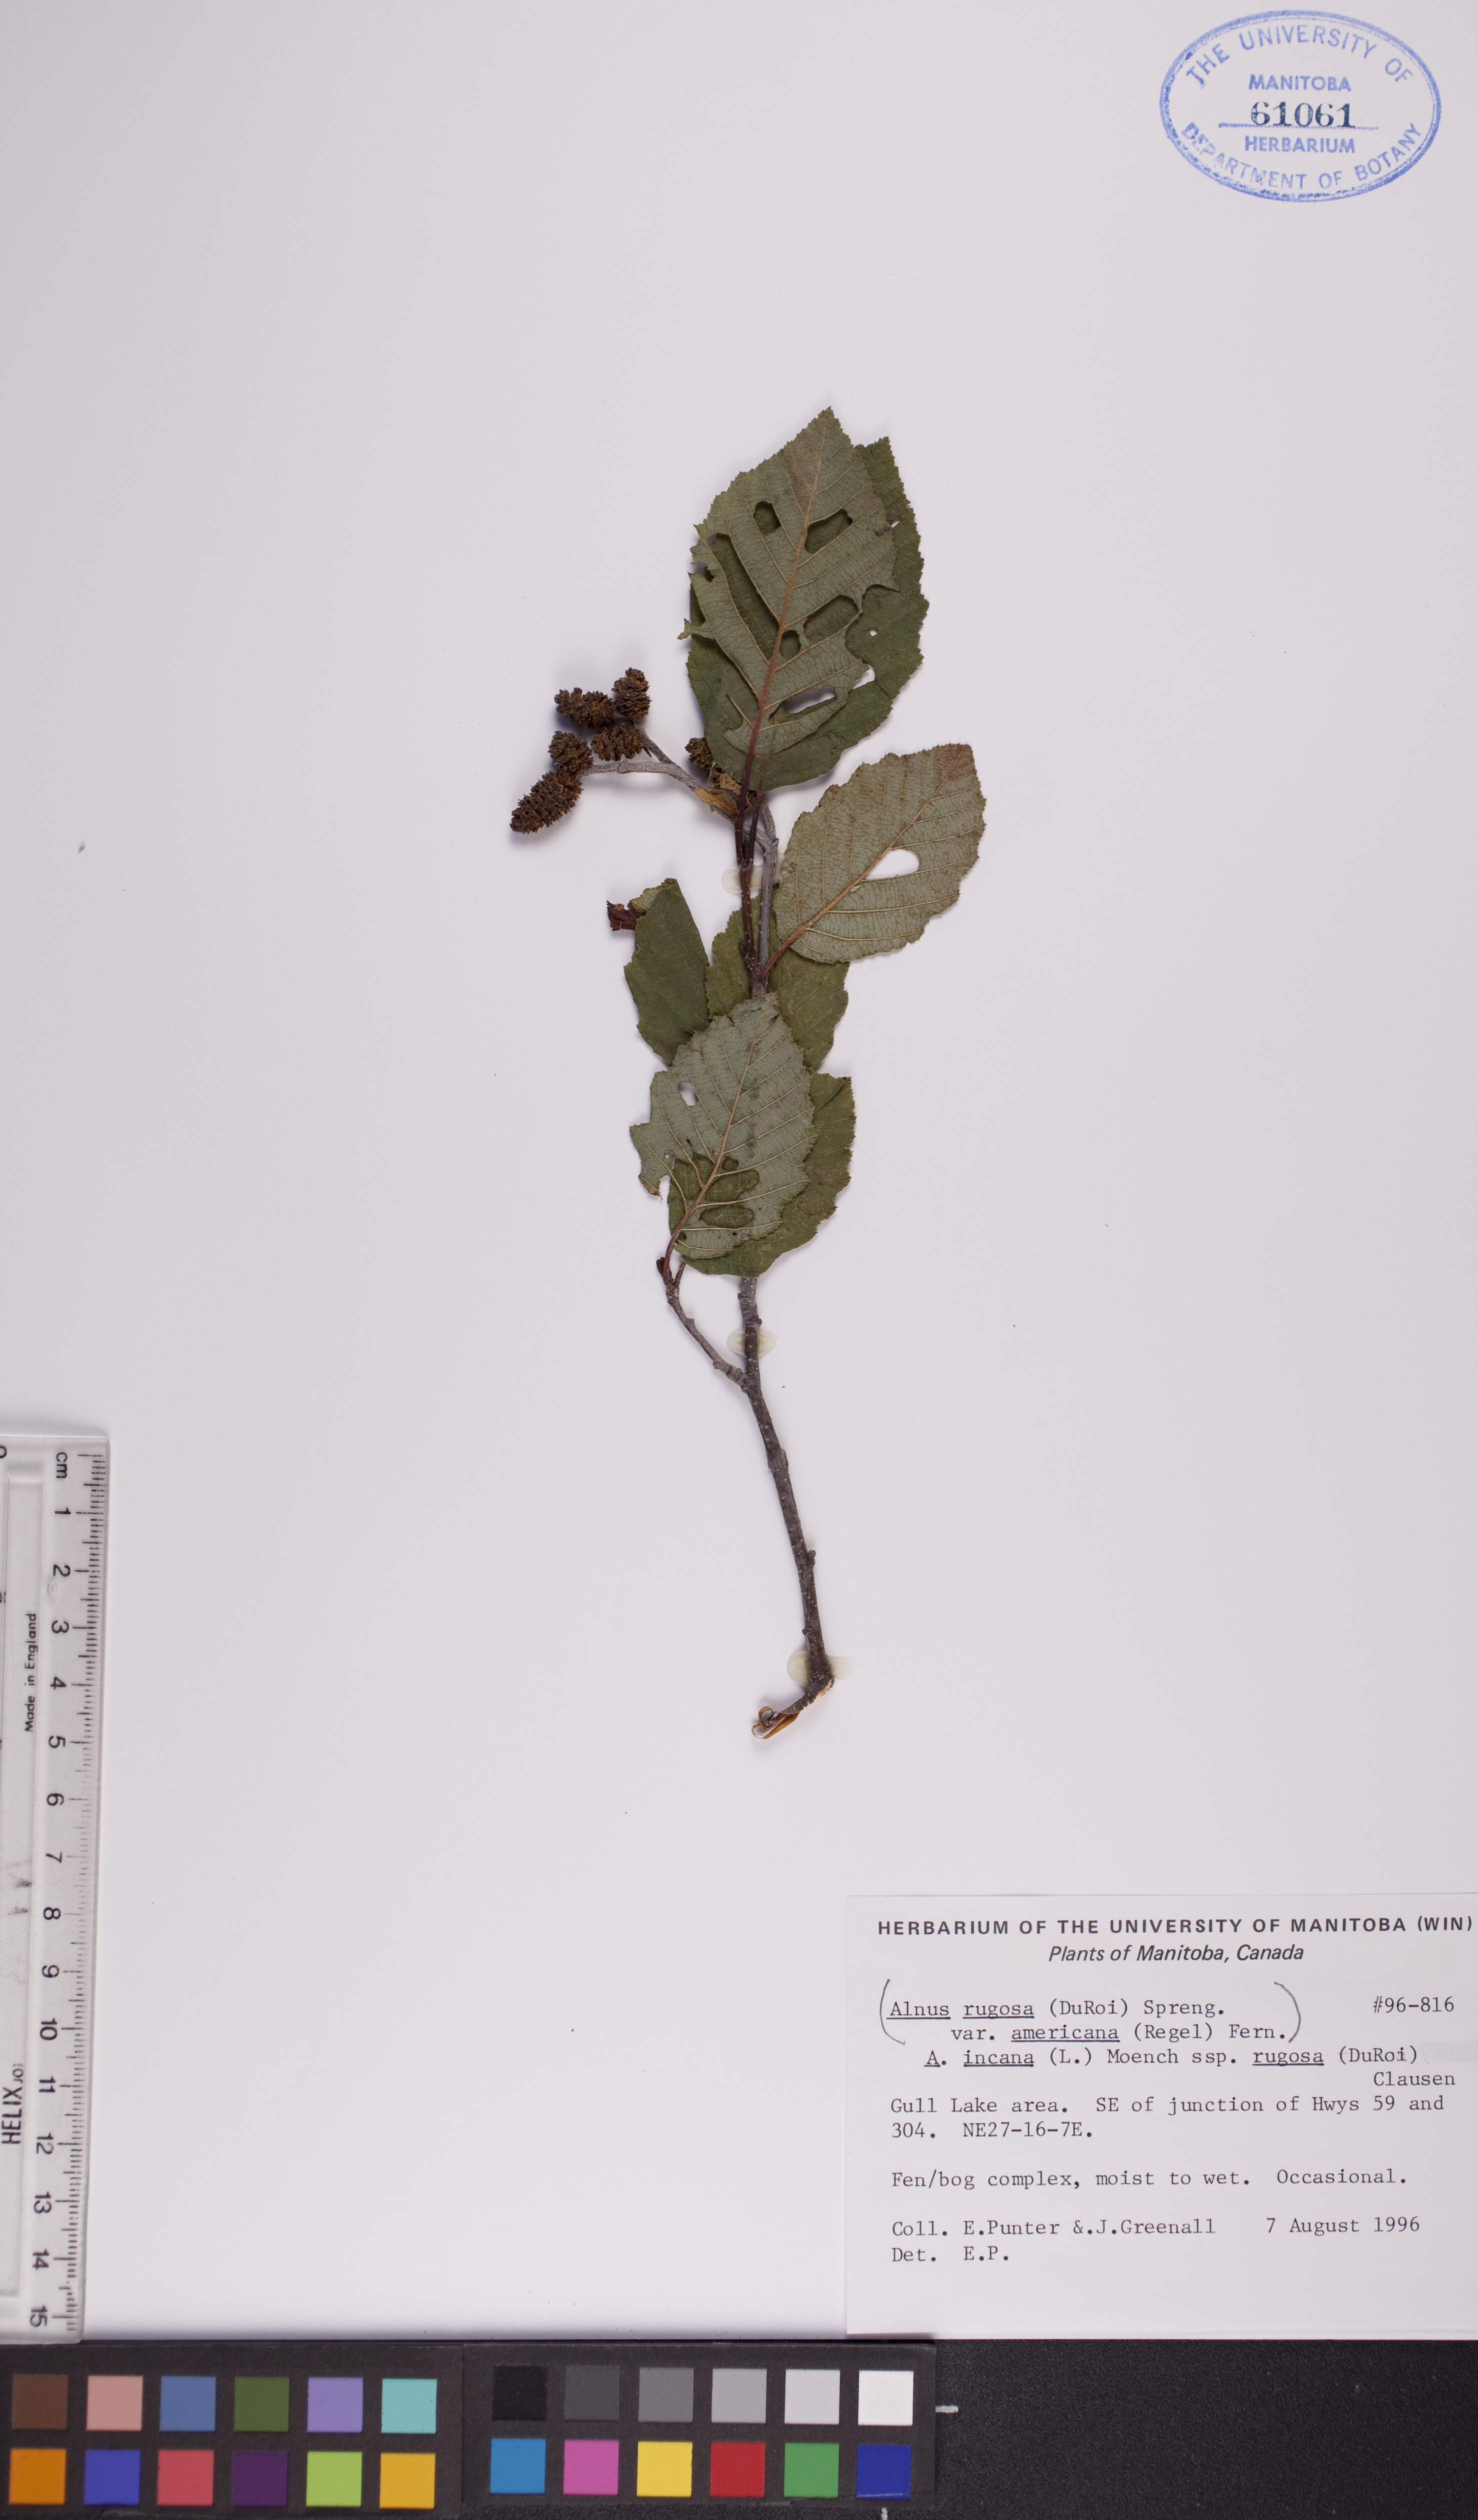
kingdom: Plantae
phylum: Tracheophyta
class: Magnoliopsida
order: Fagales
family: Betulaceae
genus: Alnus
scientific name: Alnus incana
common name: Grey alder
